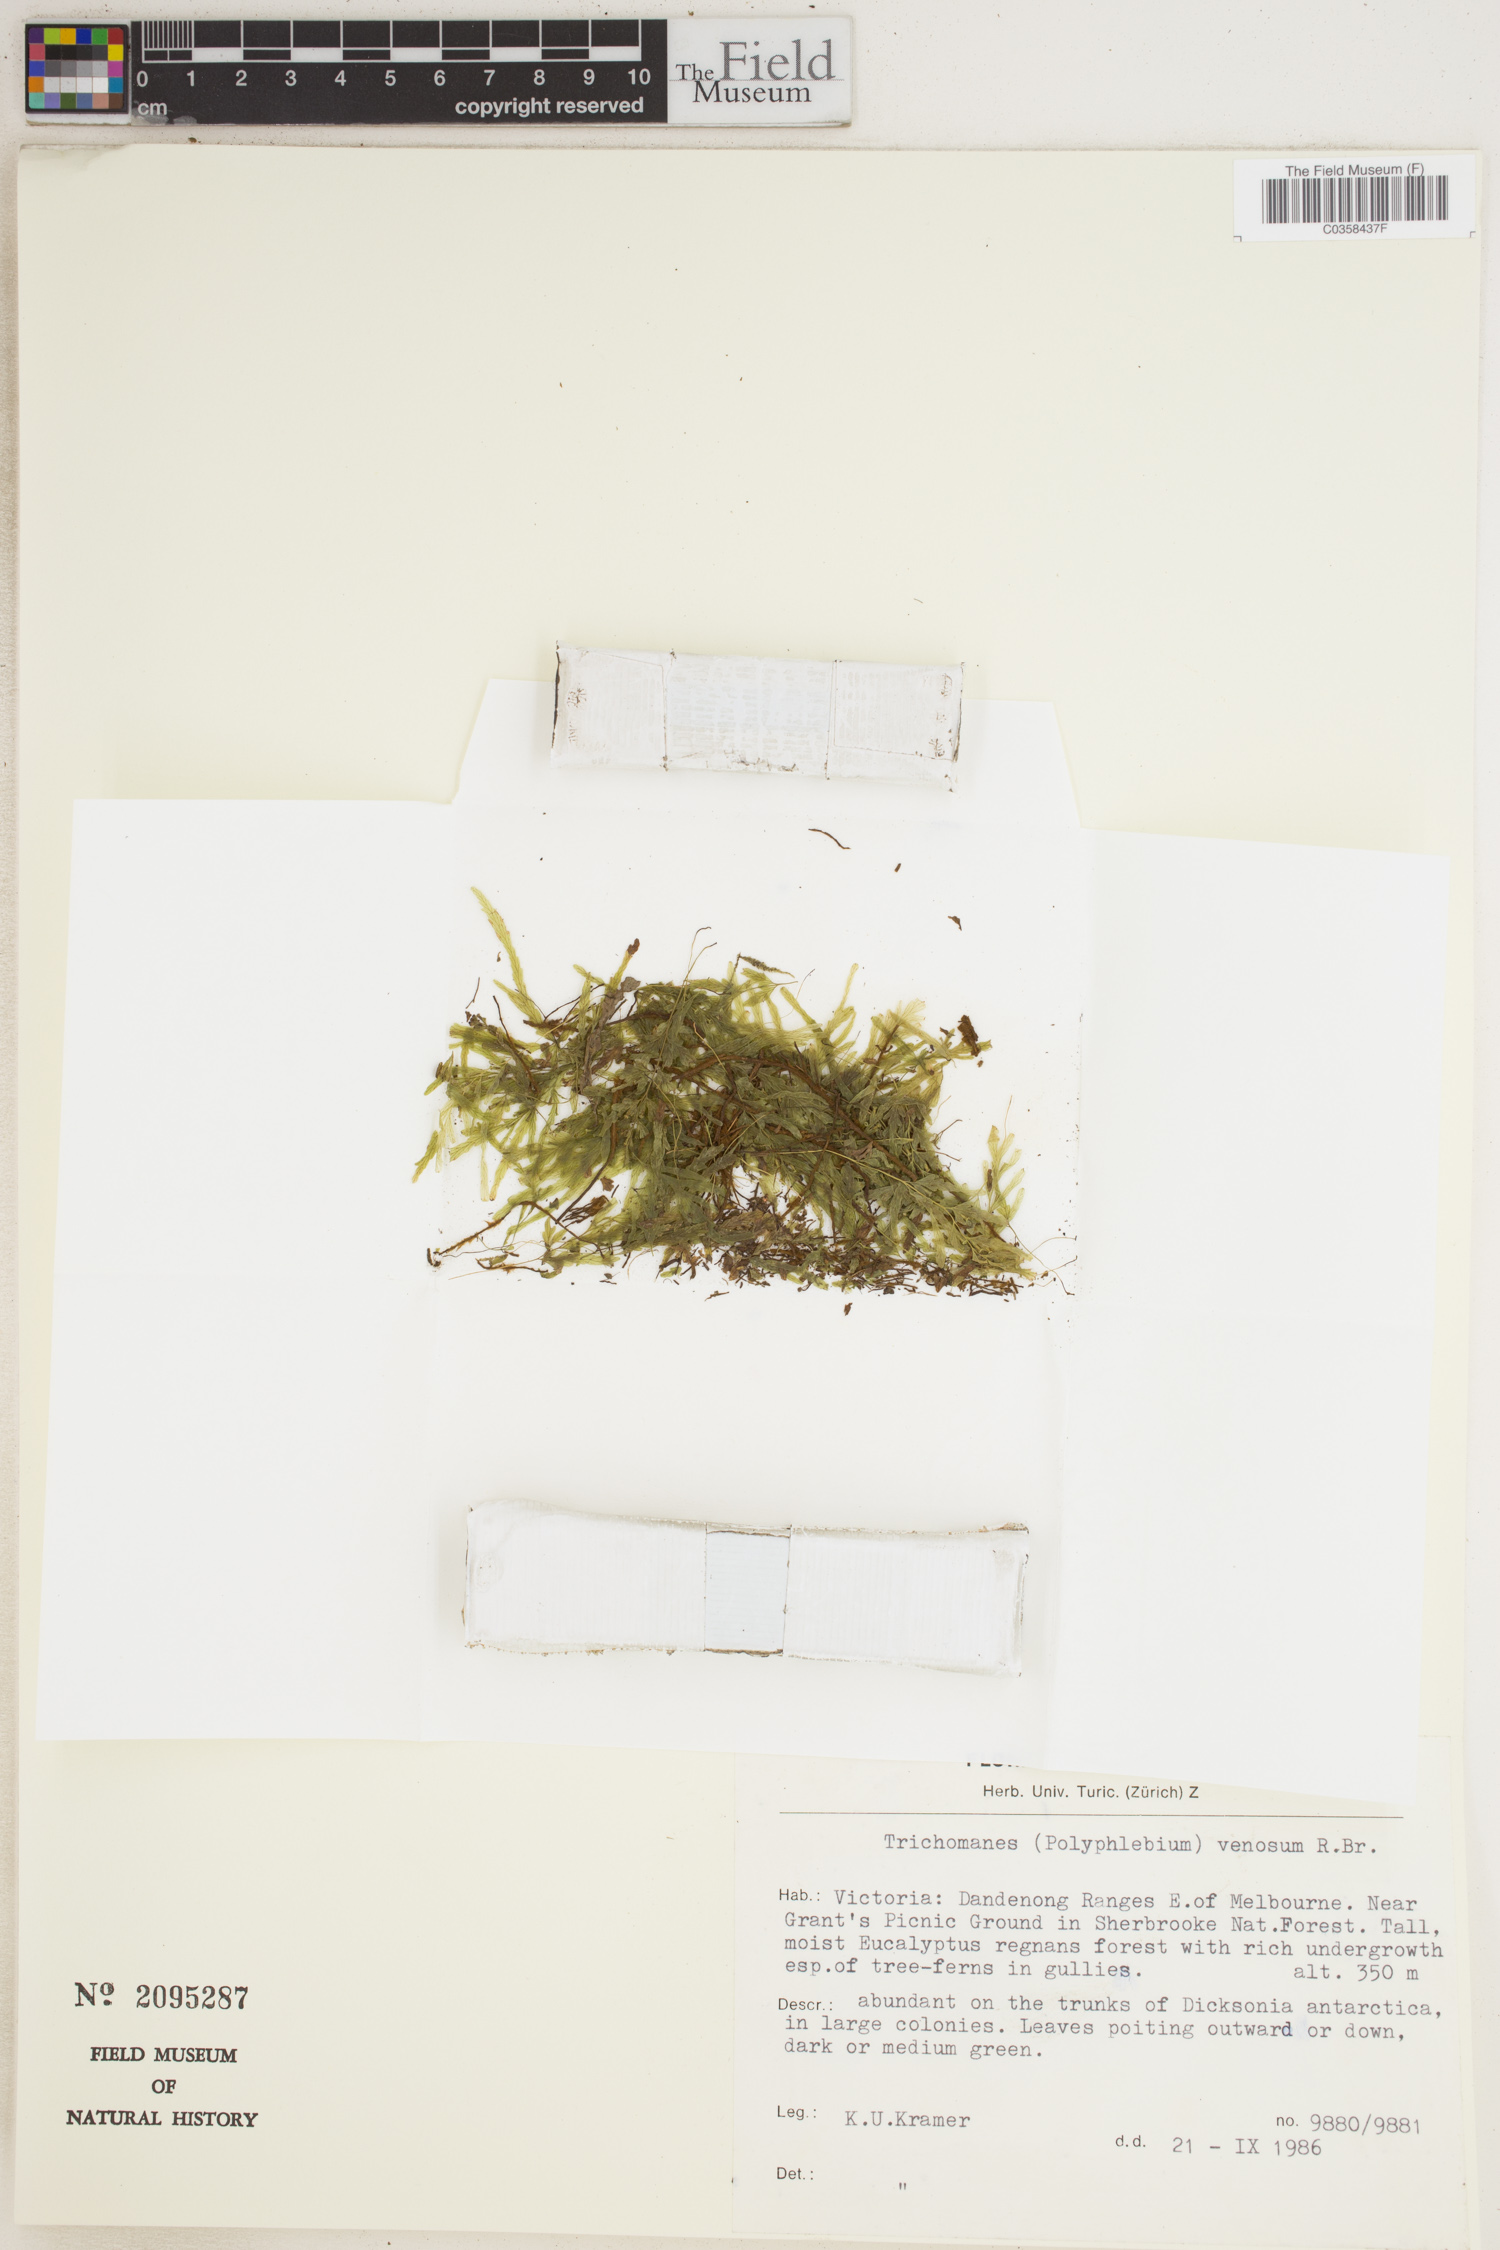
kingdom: Plantae
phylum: Tracheophyta
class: Polypodiopsida
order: Hymenophyllales
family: Hymenophyllaceae
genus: Polyphlebium
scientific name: Polyphlebium venosum
